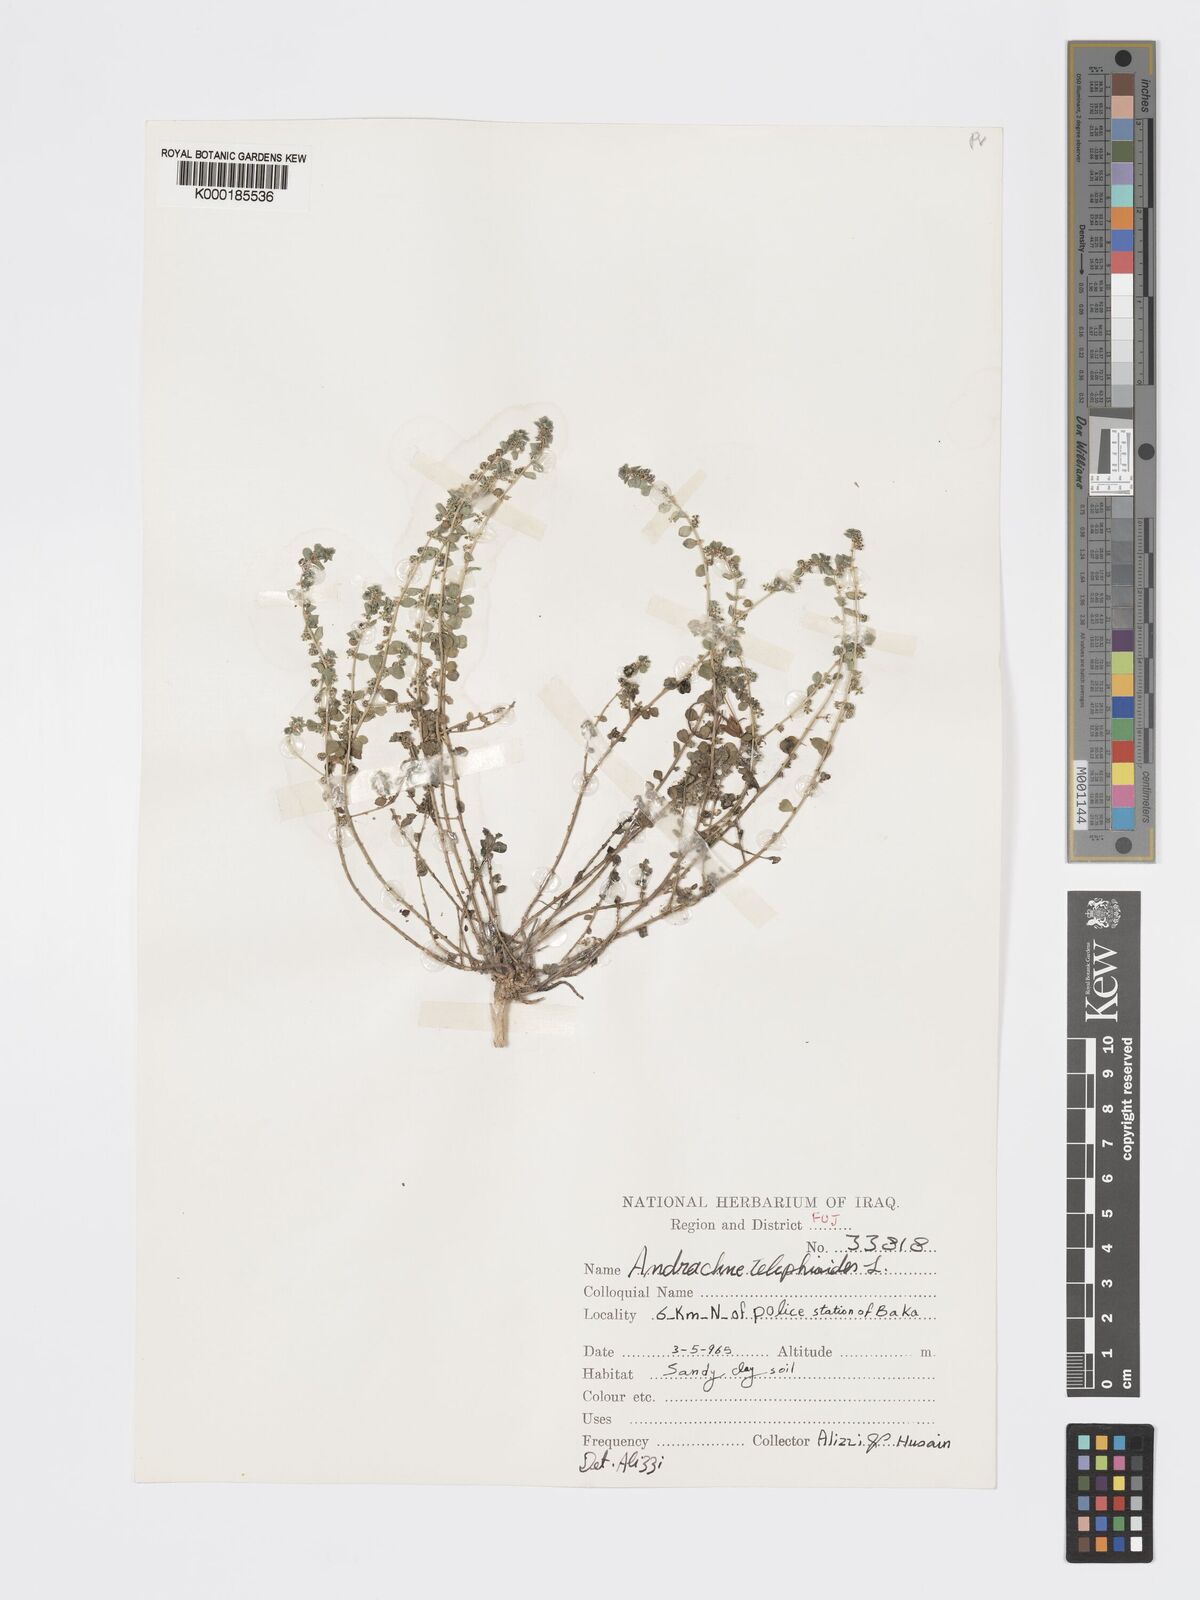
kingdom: Plantae
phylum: Tracheophyta
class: Magnoliopsida
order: Malpighiales
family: Phyllanthaceae
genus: Andrachne
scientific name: Andrachne telephioides
